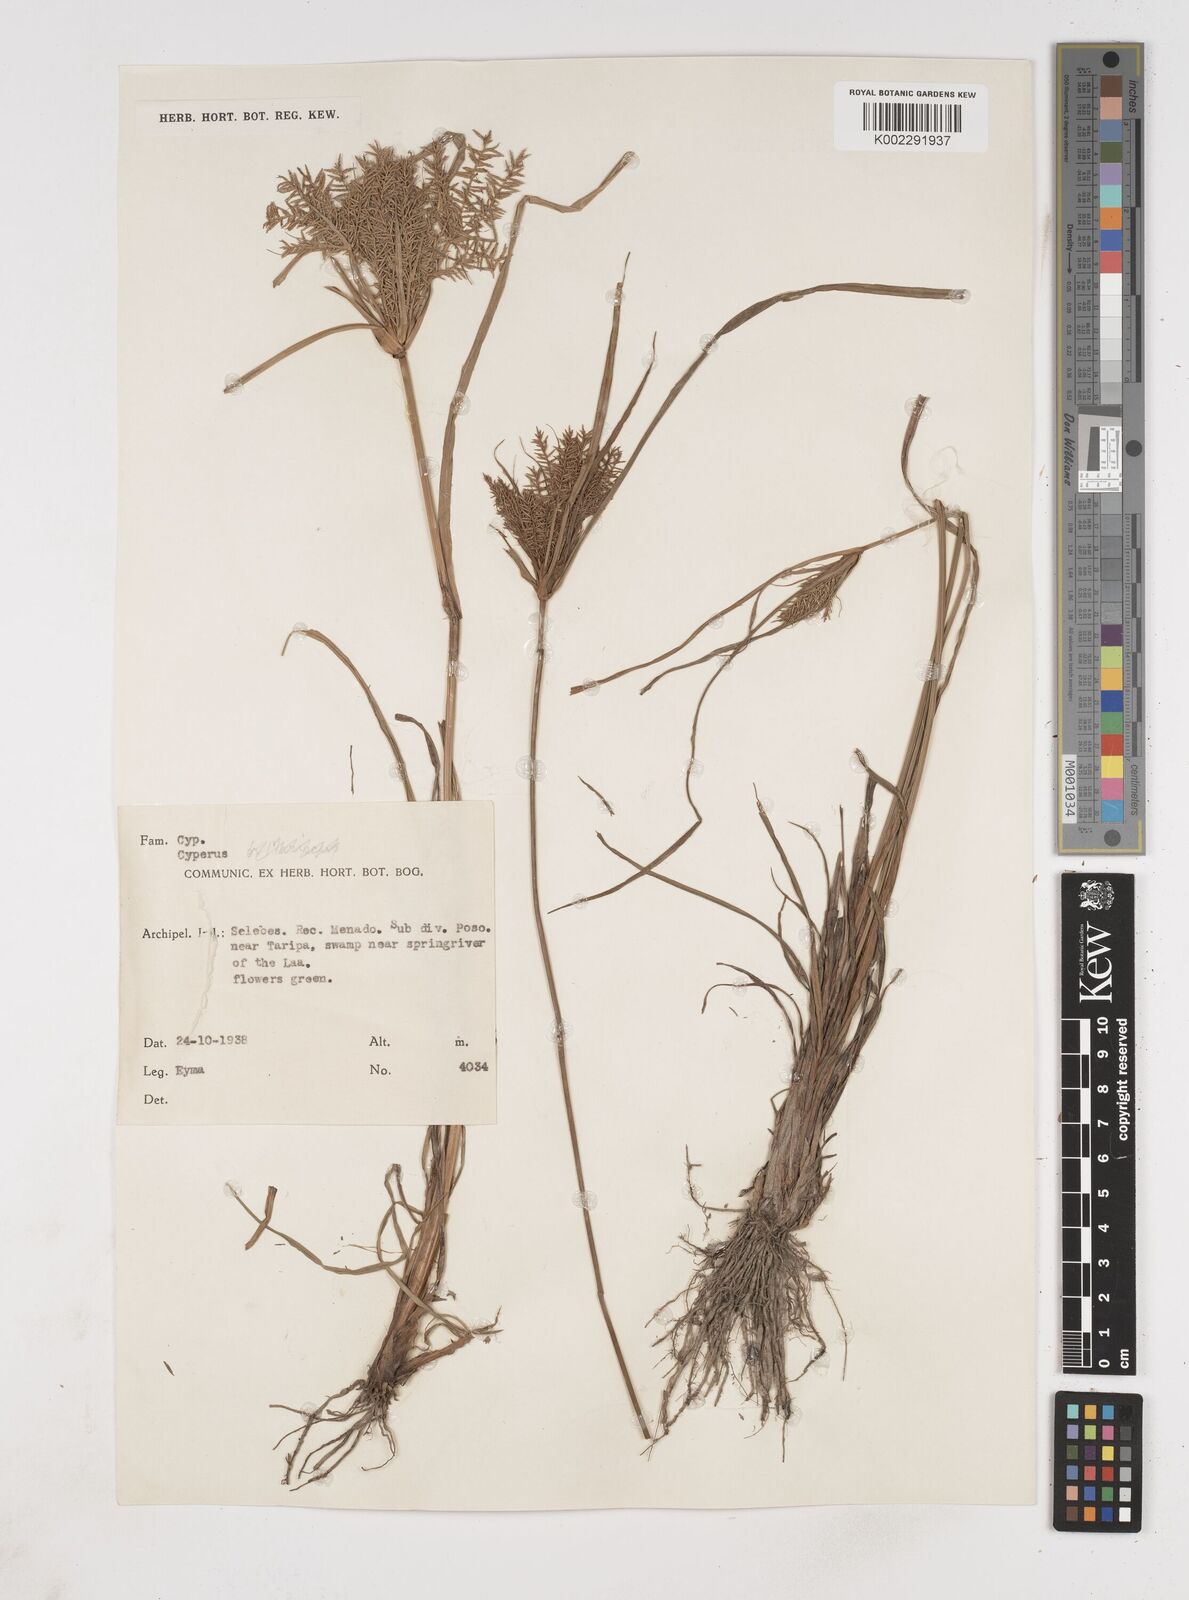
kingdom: Plantae
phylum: Tracheophyta
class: Liliopsida
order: Poales
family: Cyperaceae
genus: Cyperus
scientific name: Cyperus
